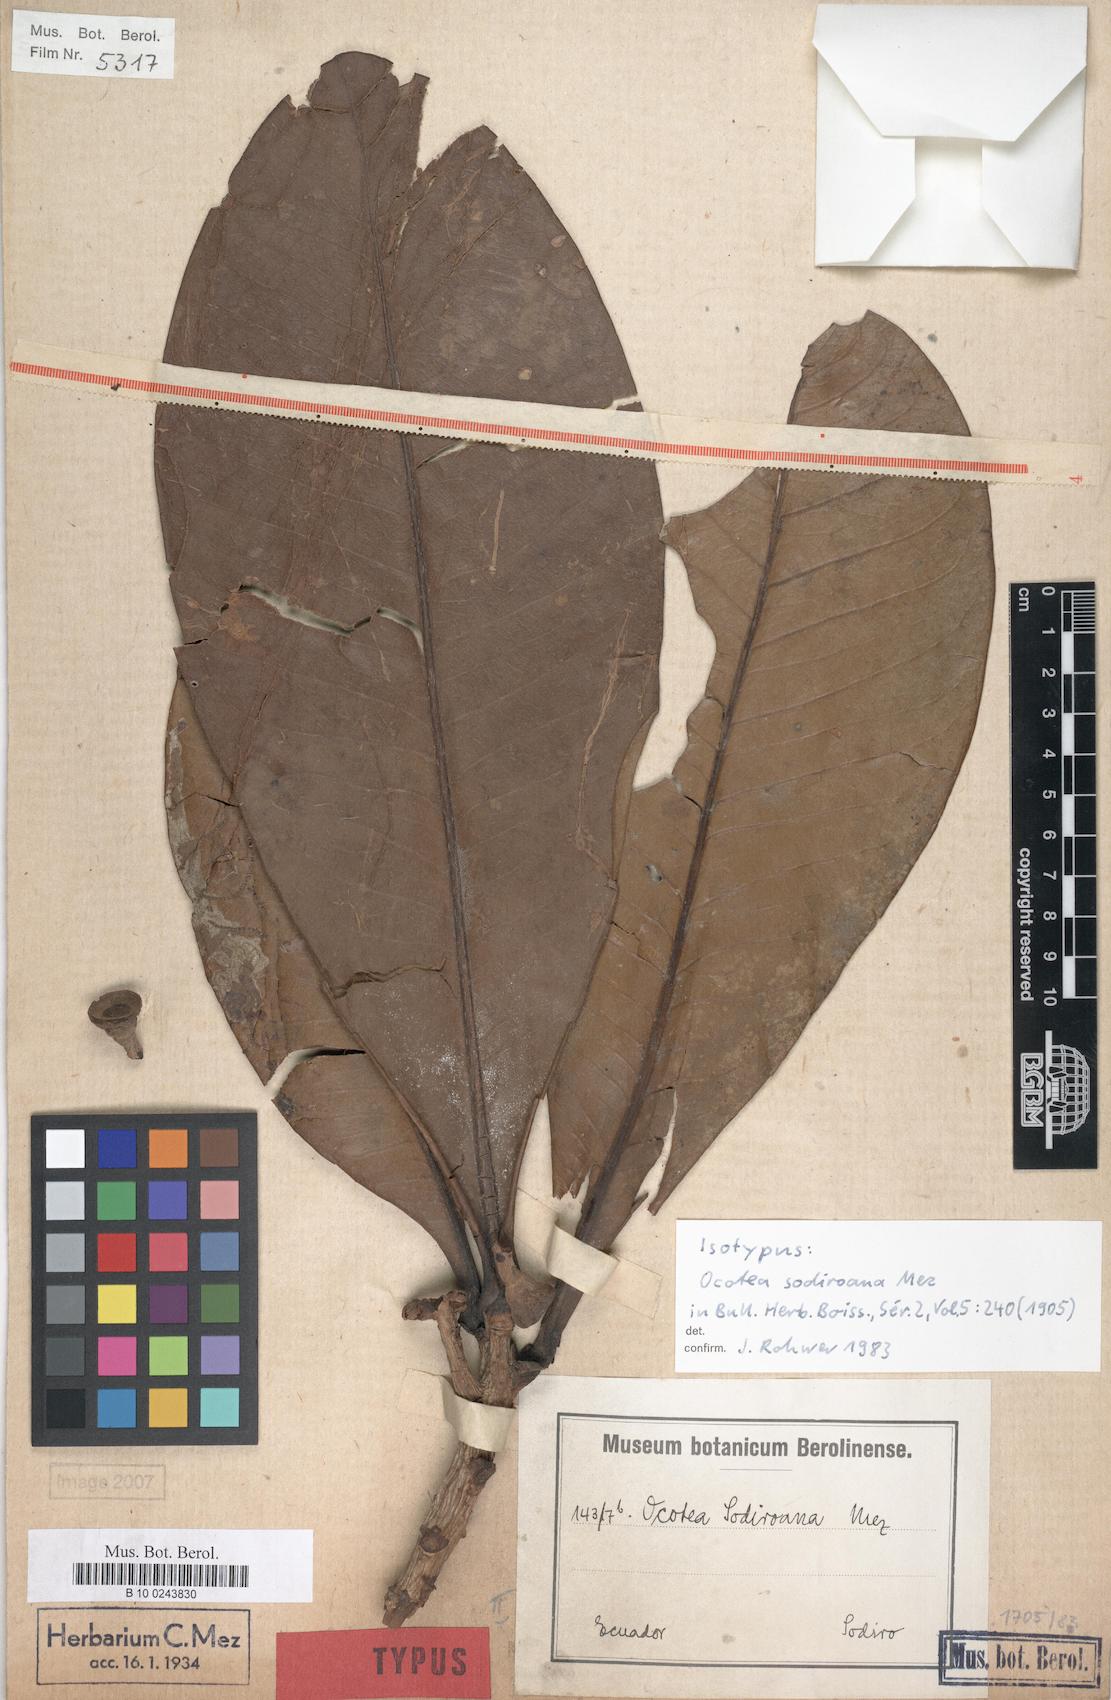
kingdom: Plantae
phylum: Tracheophyta
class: Magnoliopsida
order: Laurales
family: Lauraceae
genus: Andea
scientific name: Andea sodiroana
